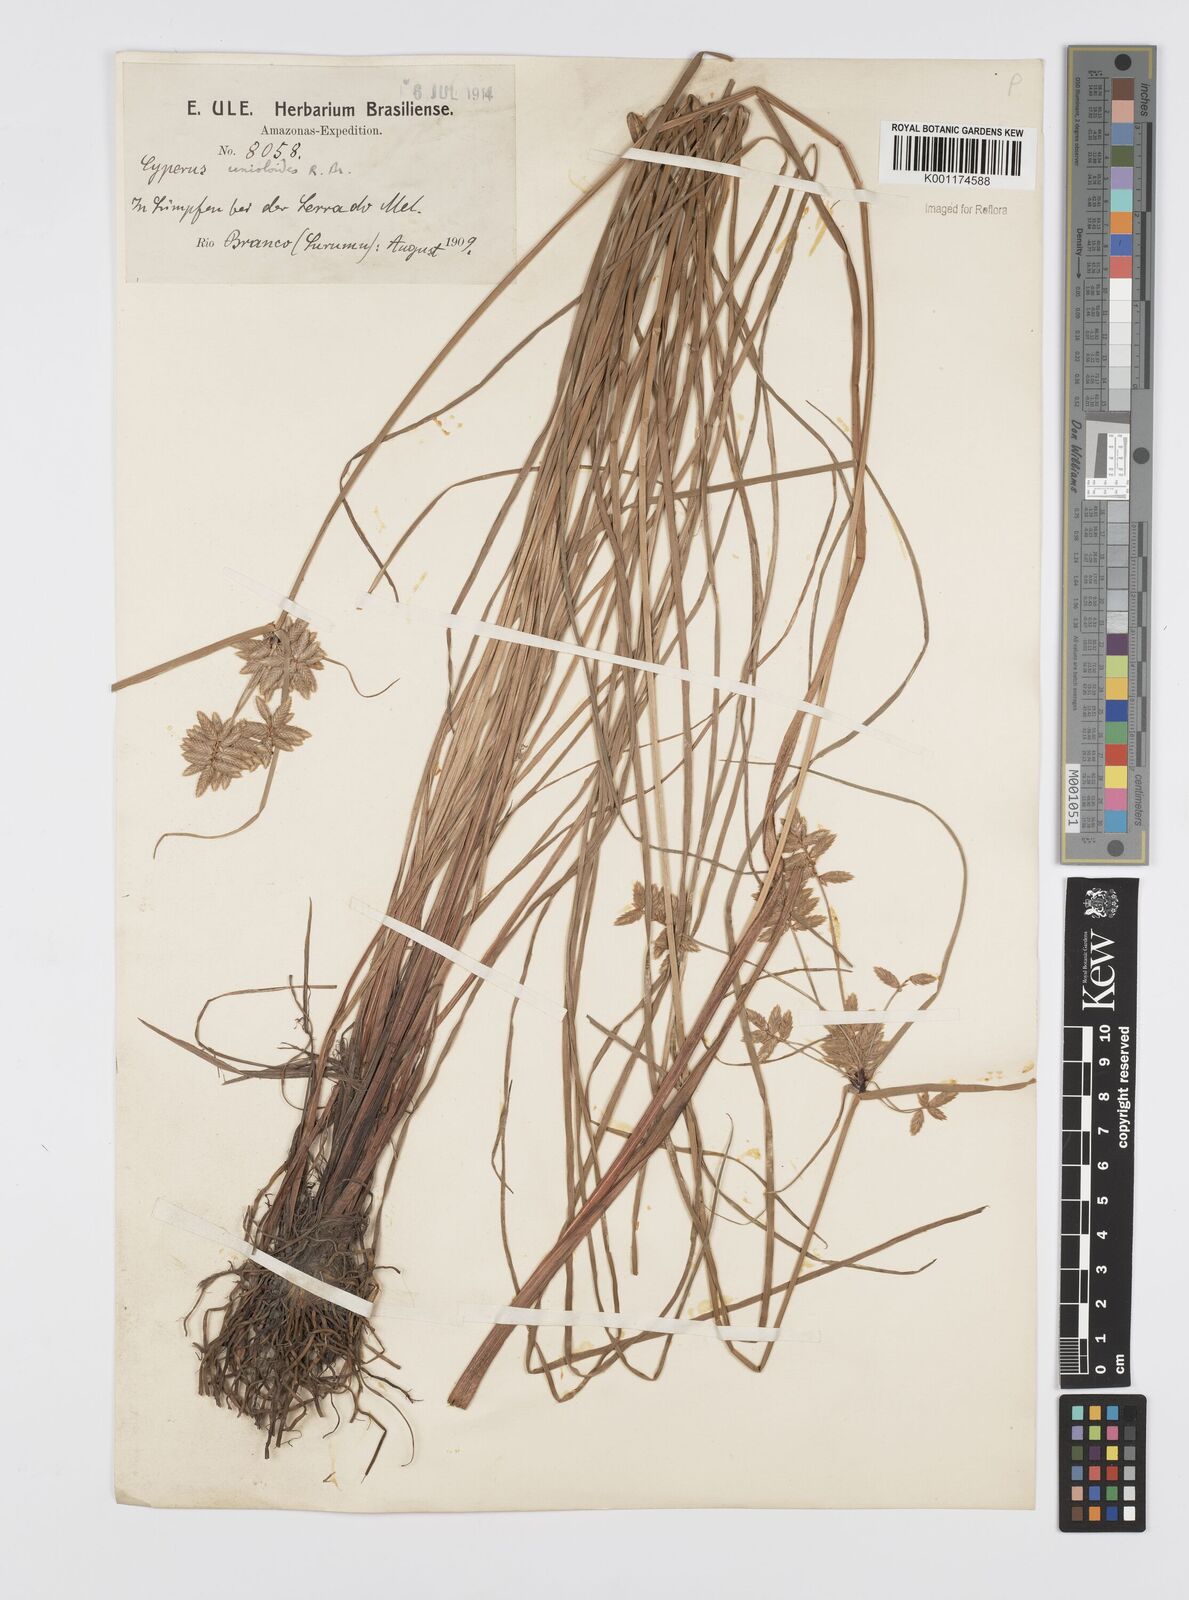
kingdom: Plantae
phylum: Tracheophyta
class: Liliopsida
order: Poales
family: Cyperaceae
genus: Cyperus
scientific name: Cyperus unioloides
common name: Uniola flatsedge
